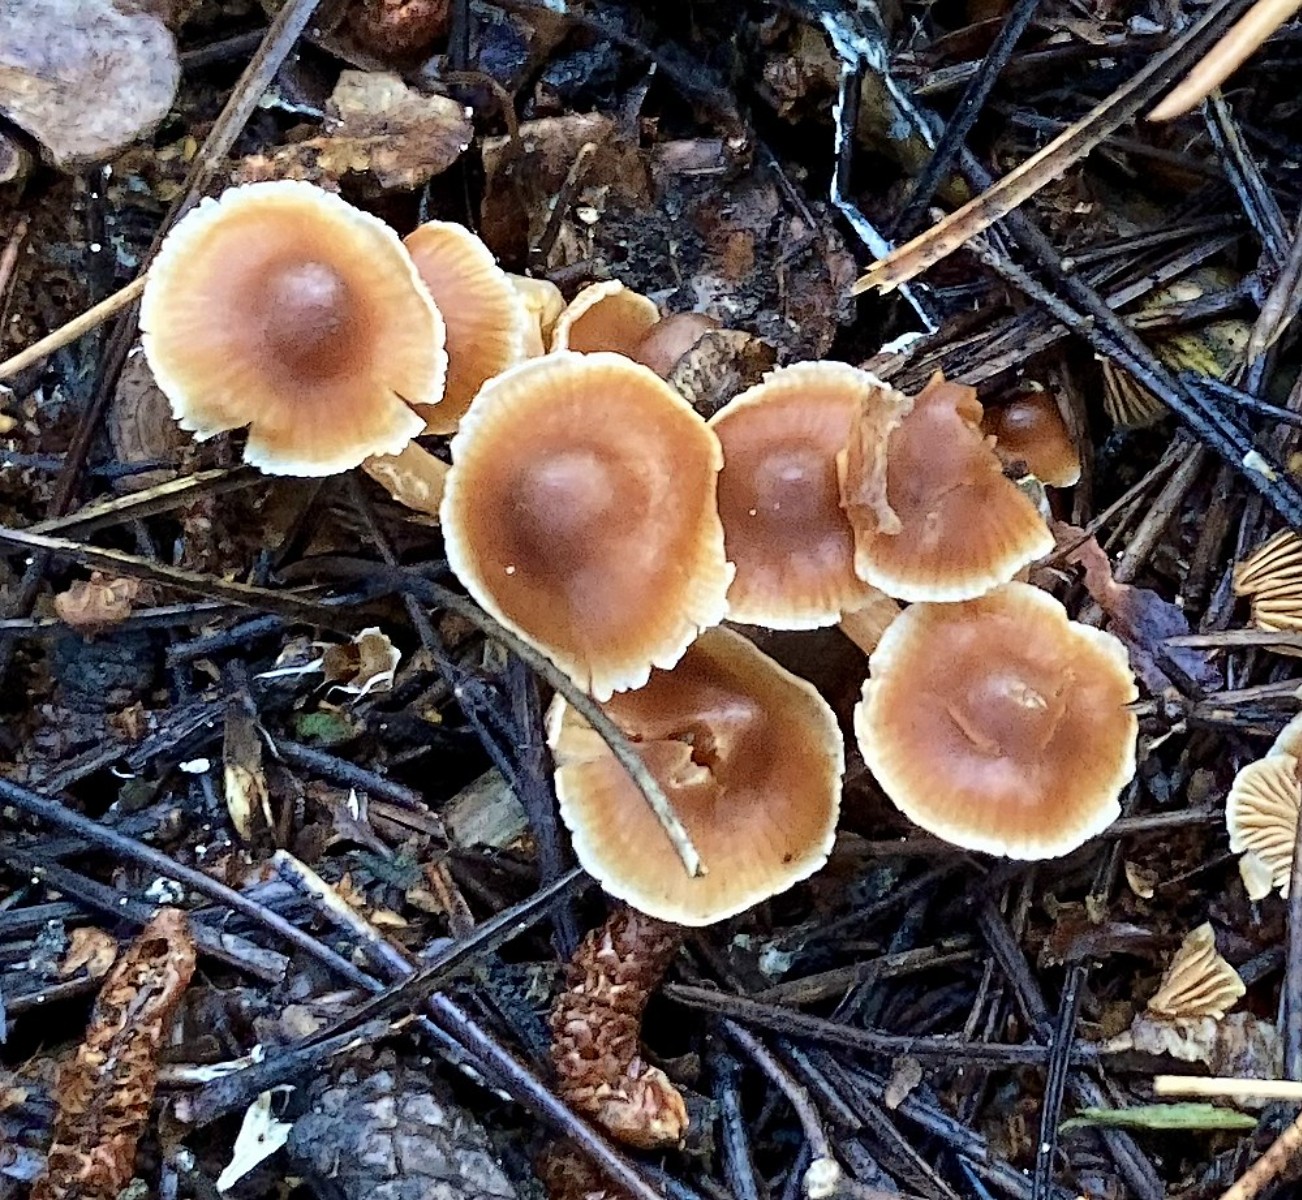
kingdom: Fungi
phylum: Basidiomycota
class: Agaricomycetes
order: Agaricales
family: Cortinariaceae
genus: Cortinarius
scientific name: Cortinarius
